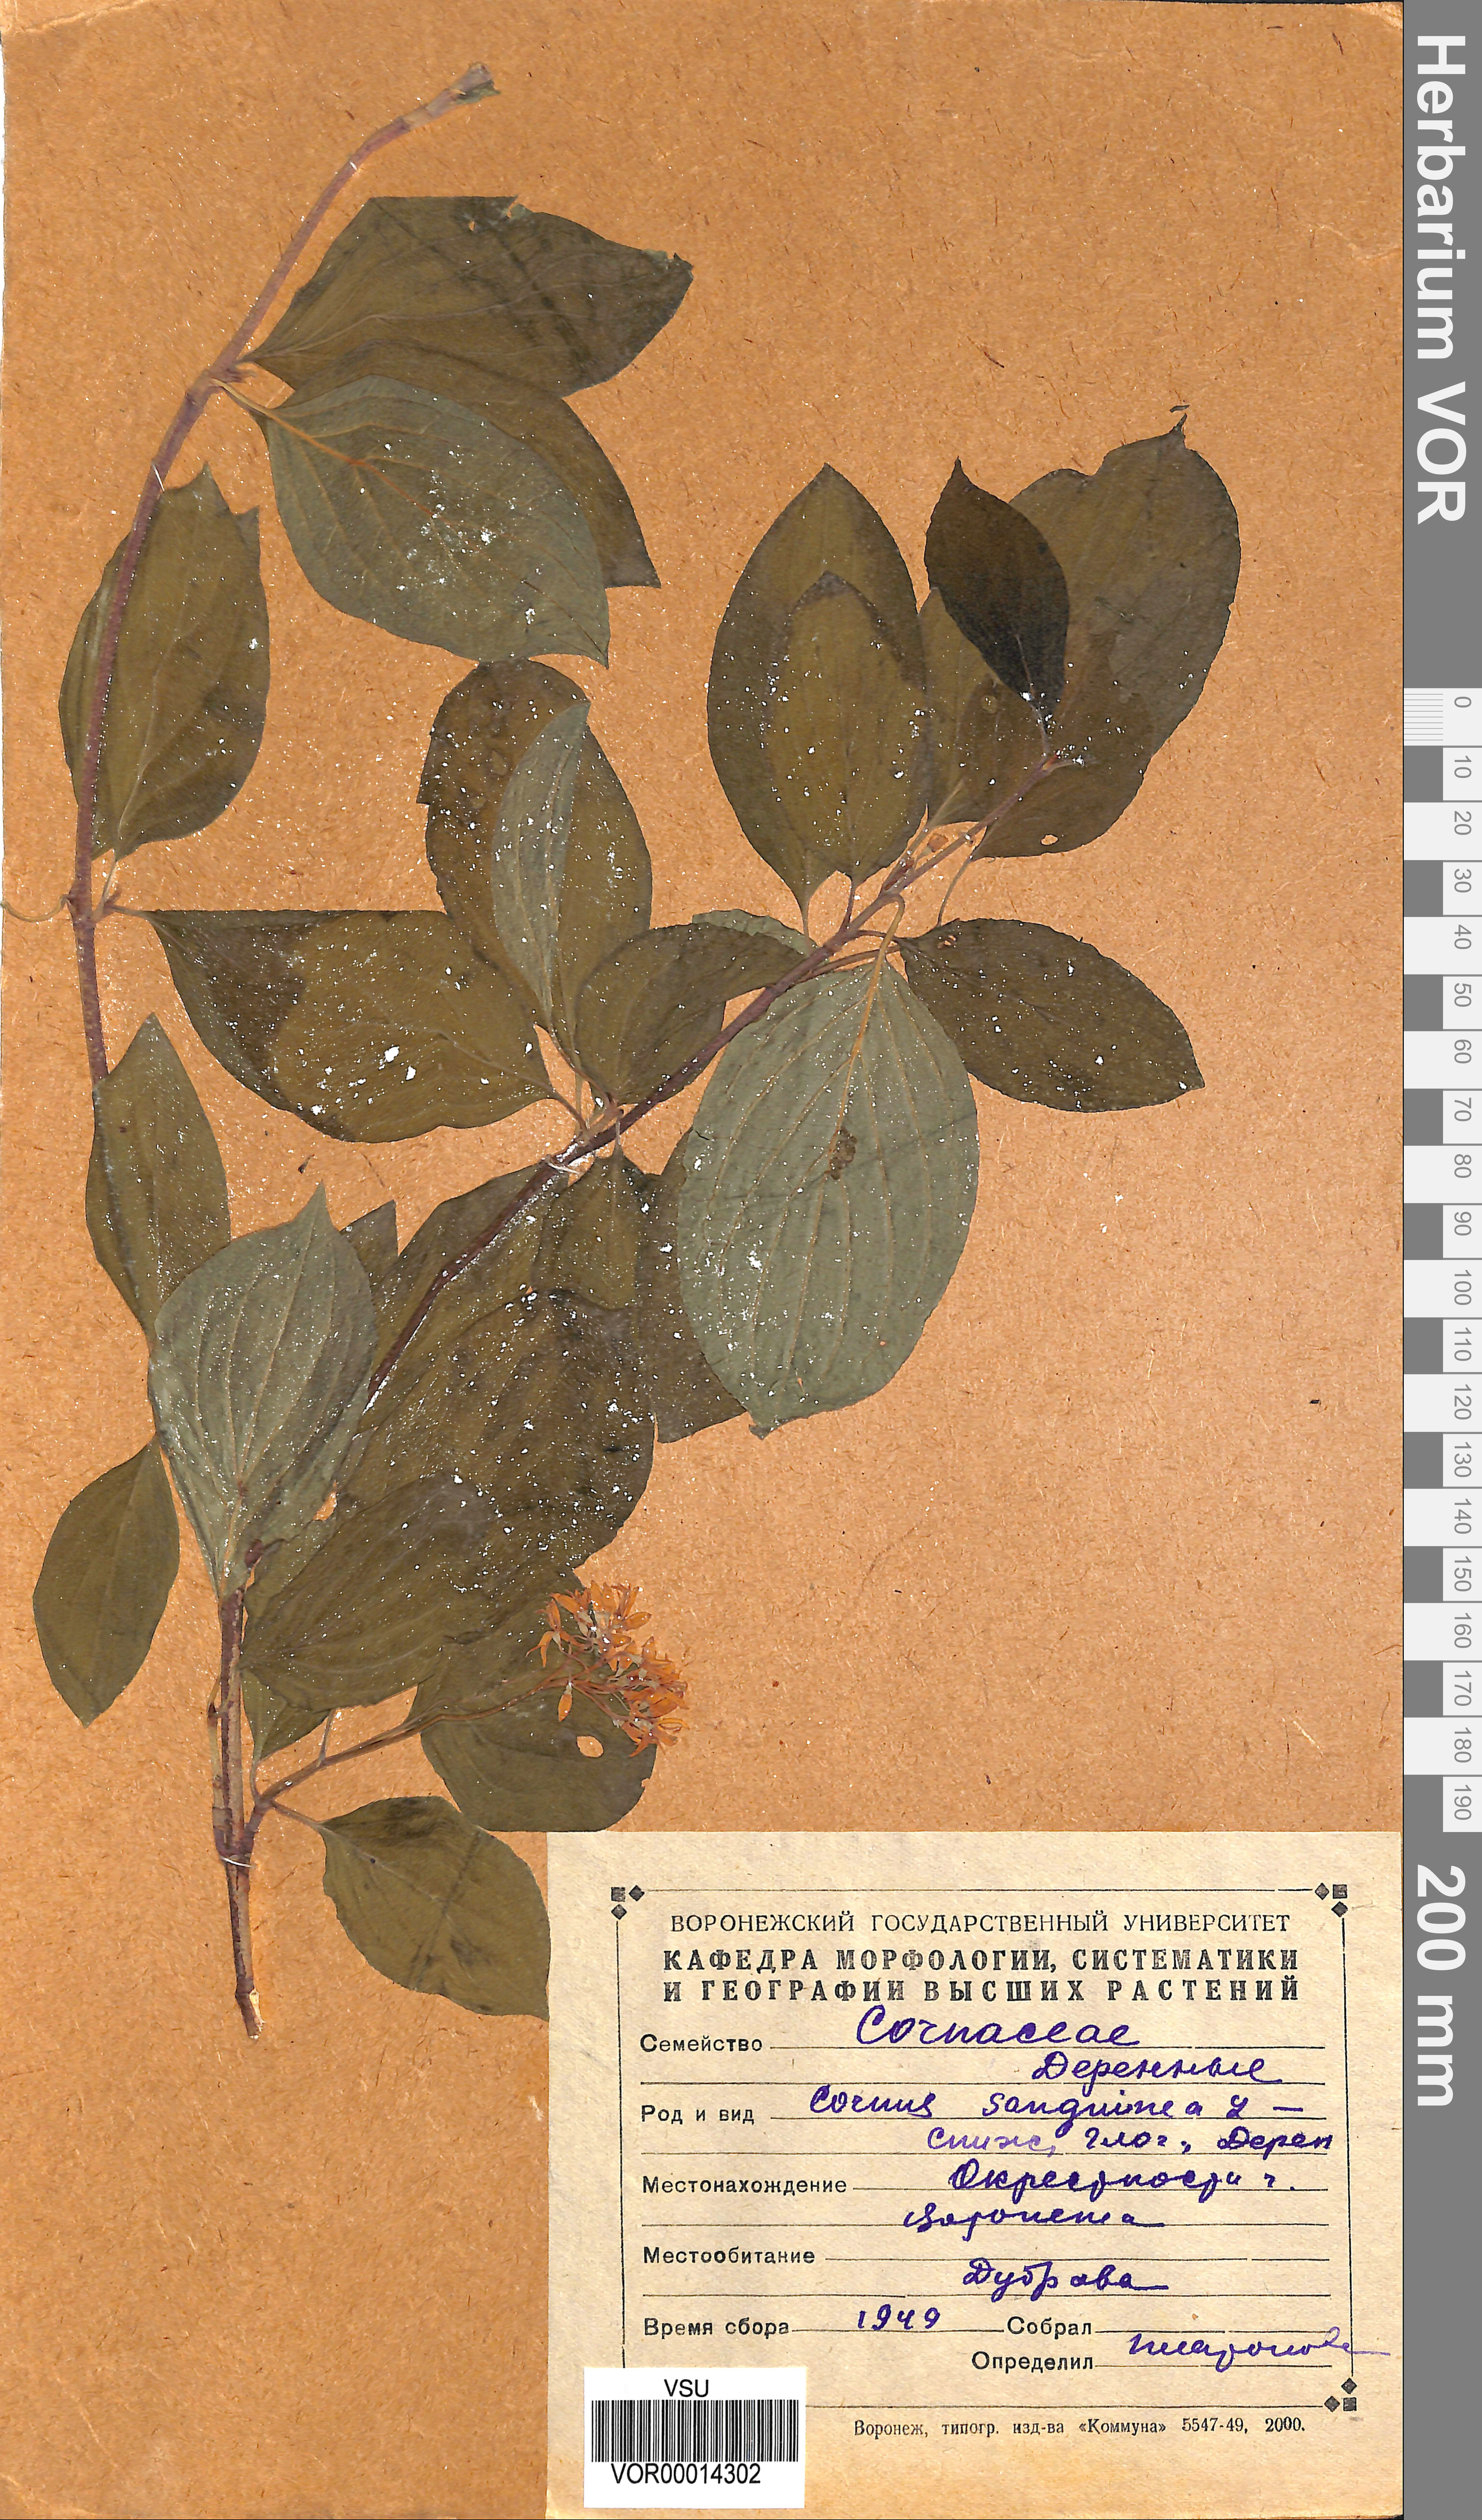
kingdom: Plantae
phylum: Tracheophyta
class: Magnoliopsida
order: Cornales
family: Cornaceae
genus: Cornus
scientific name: Cornus sanguinea
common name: Dogwood
